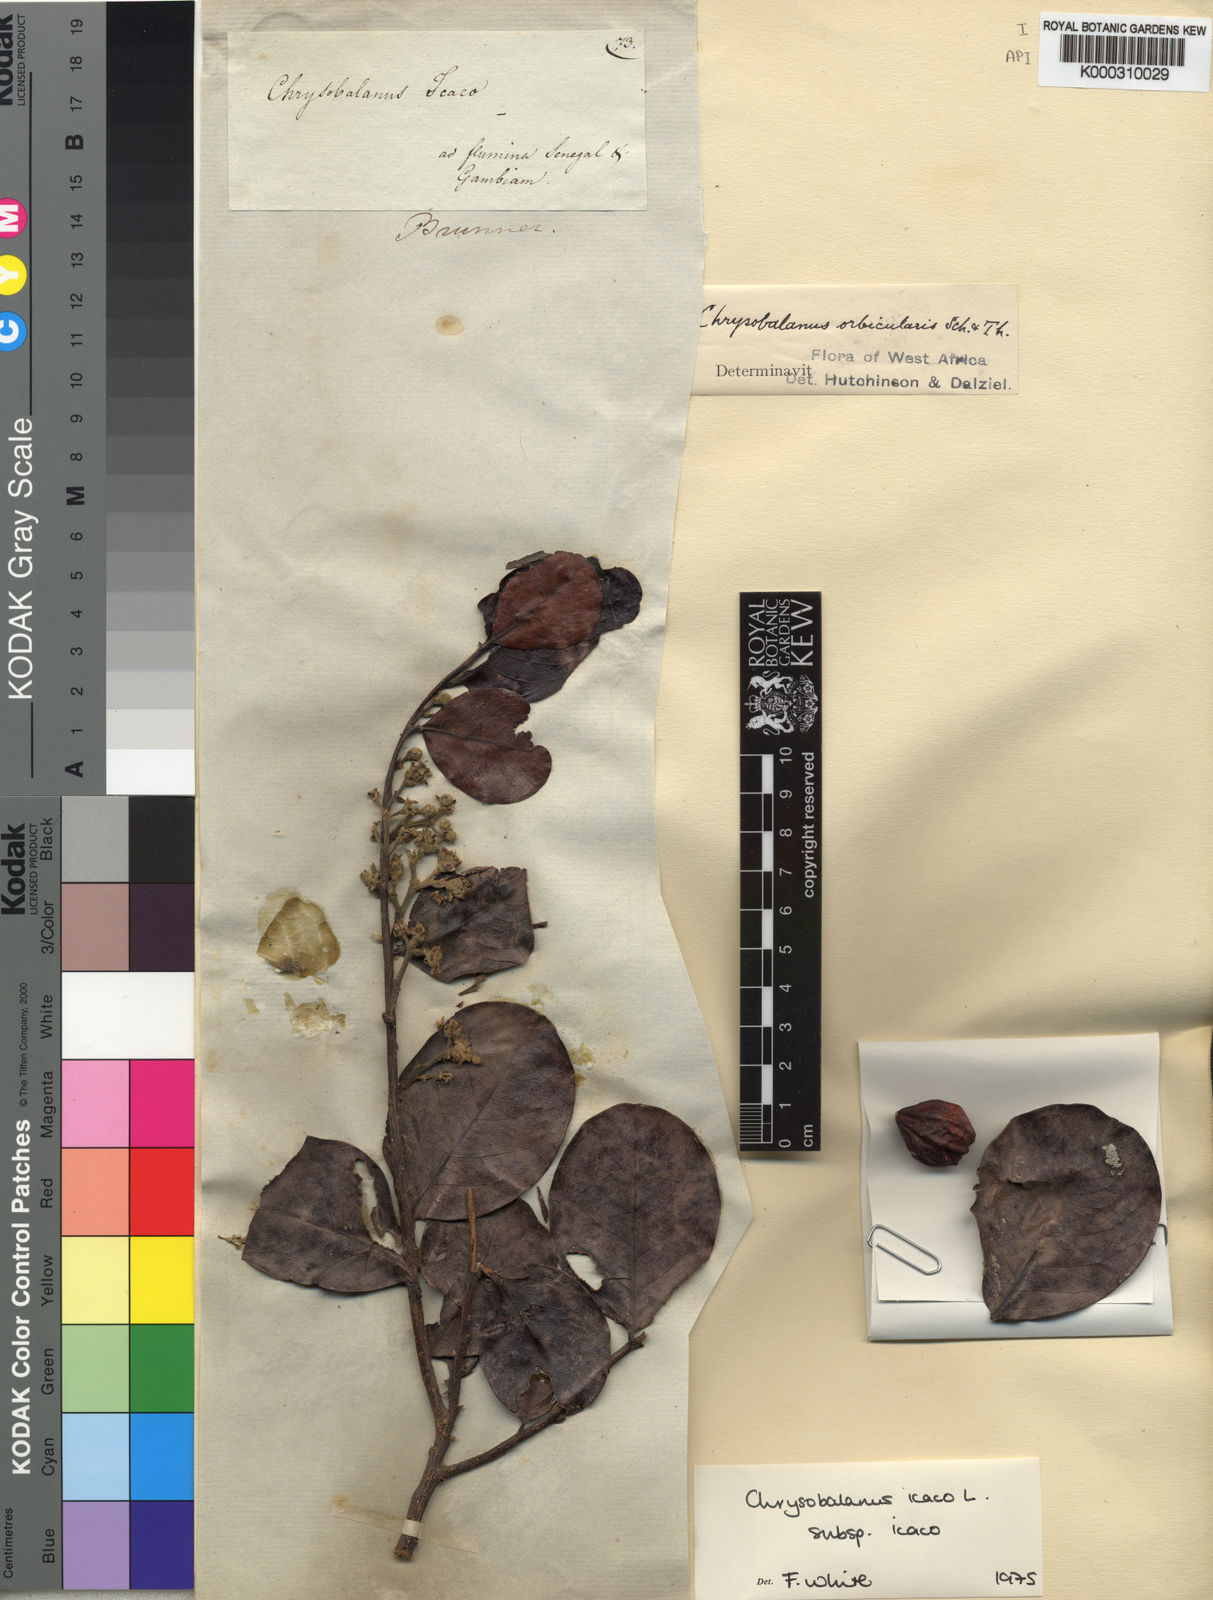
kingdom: Plantae
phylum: Tracheophyta
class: Magnoliopsida
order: Malpighiales
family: Chrysobalanaceae
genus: Chrysobalanus
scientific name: Chrysobalanus icaco
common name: Coco plum
